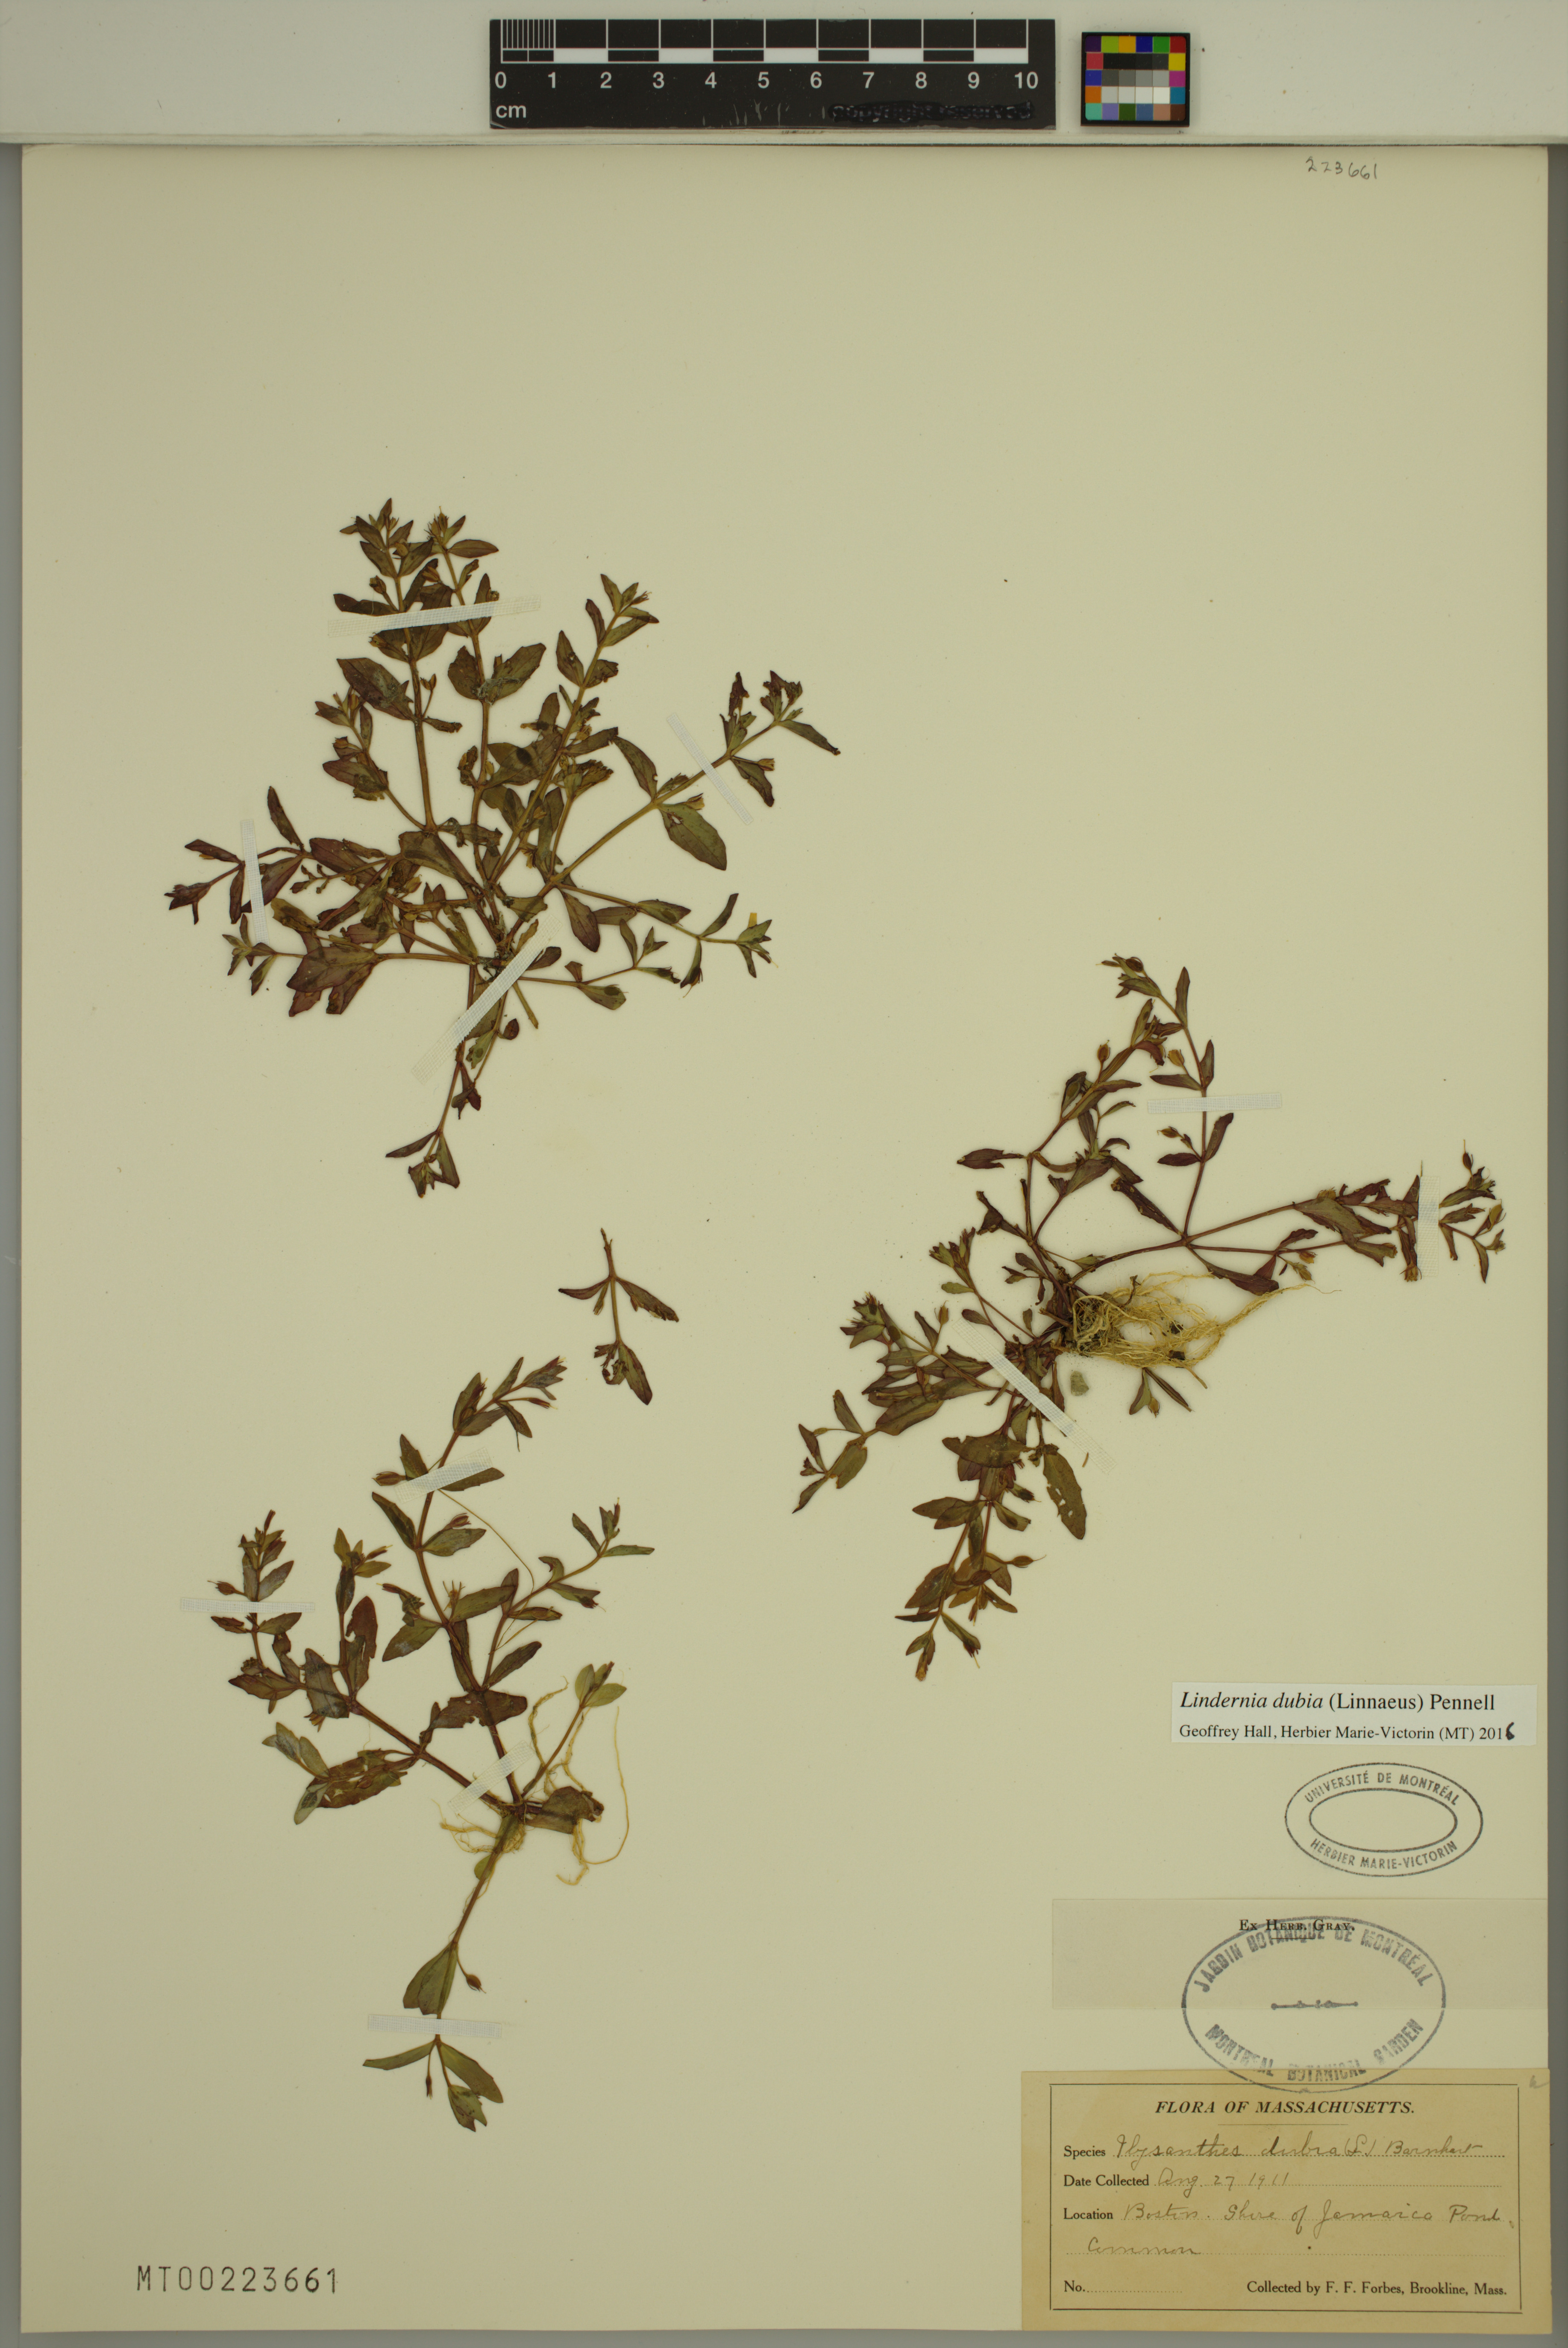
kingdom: Plantae
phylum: Tracheophyta
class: Magnoliopsida
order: Lamiales
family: Linderniaceae
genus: Lindernia
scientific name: Lindernia dubia
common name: Annual false pimpernel
